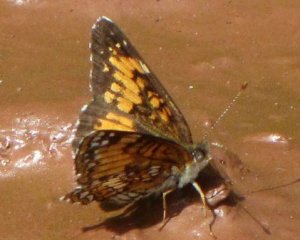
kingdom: Animalia
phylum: Arthropoda
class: Insecta
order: Lepidoptera
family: Nymphalidae
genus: Chlosyne
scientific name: Chlosyne harrisii
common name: Harris's Checkerspot
